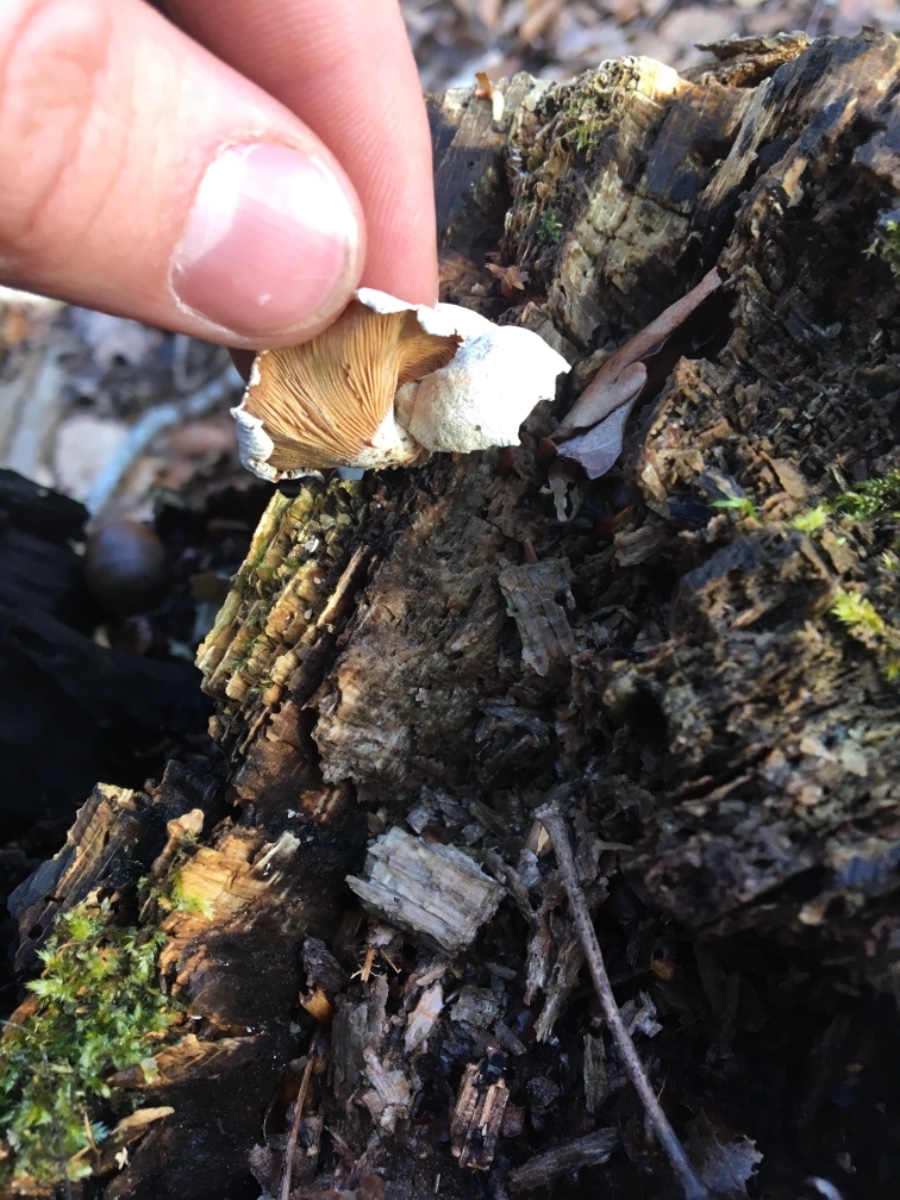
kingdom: Fungi
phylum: Basidiomycota
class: Agaricomycetes
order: Agaricales
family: Mycenaceae
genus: Panellus
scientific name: Panellus stipticus
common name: kliddet epaulethat
